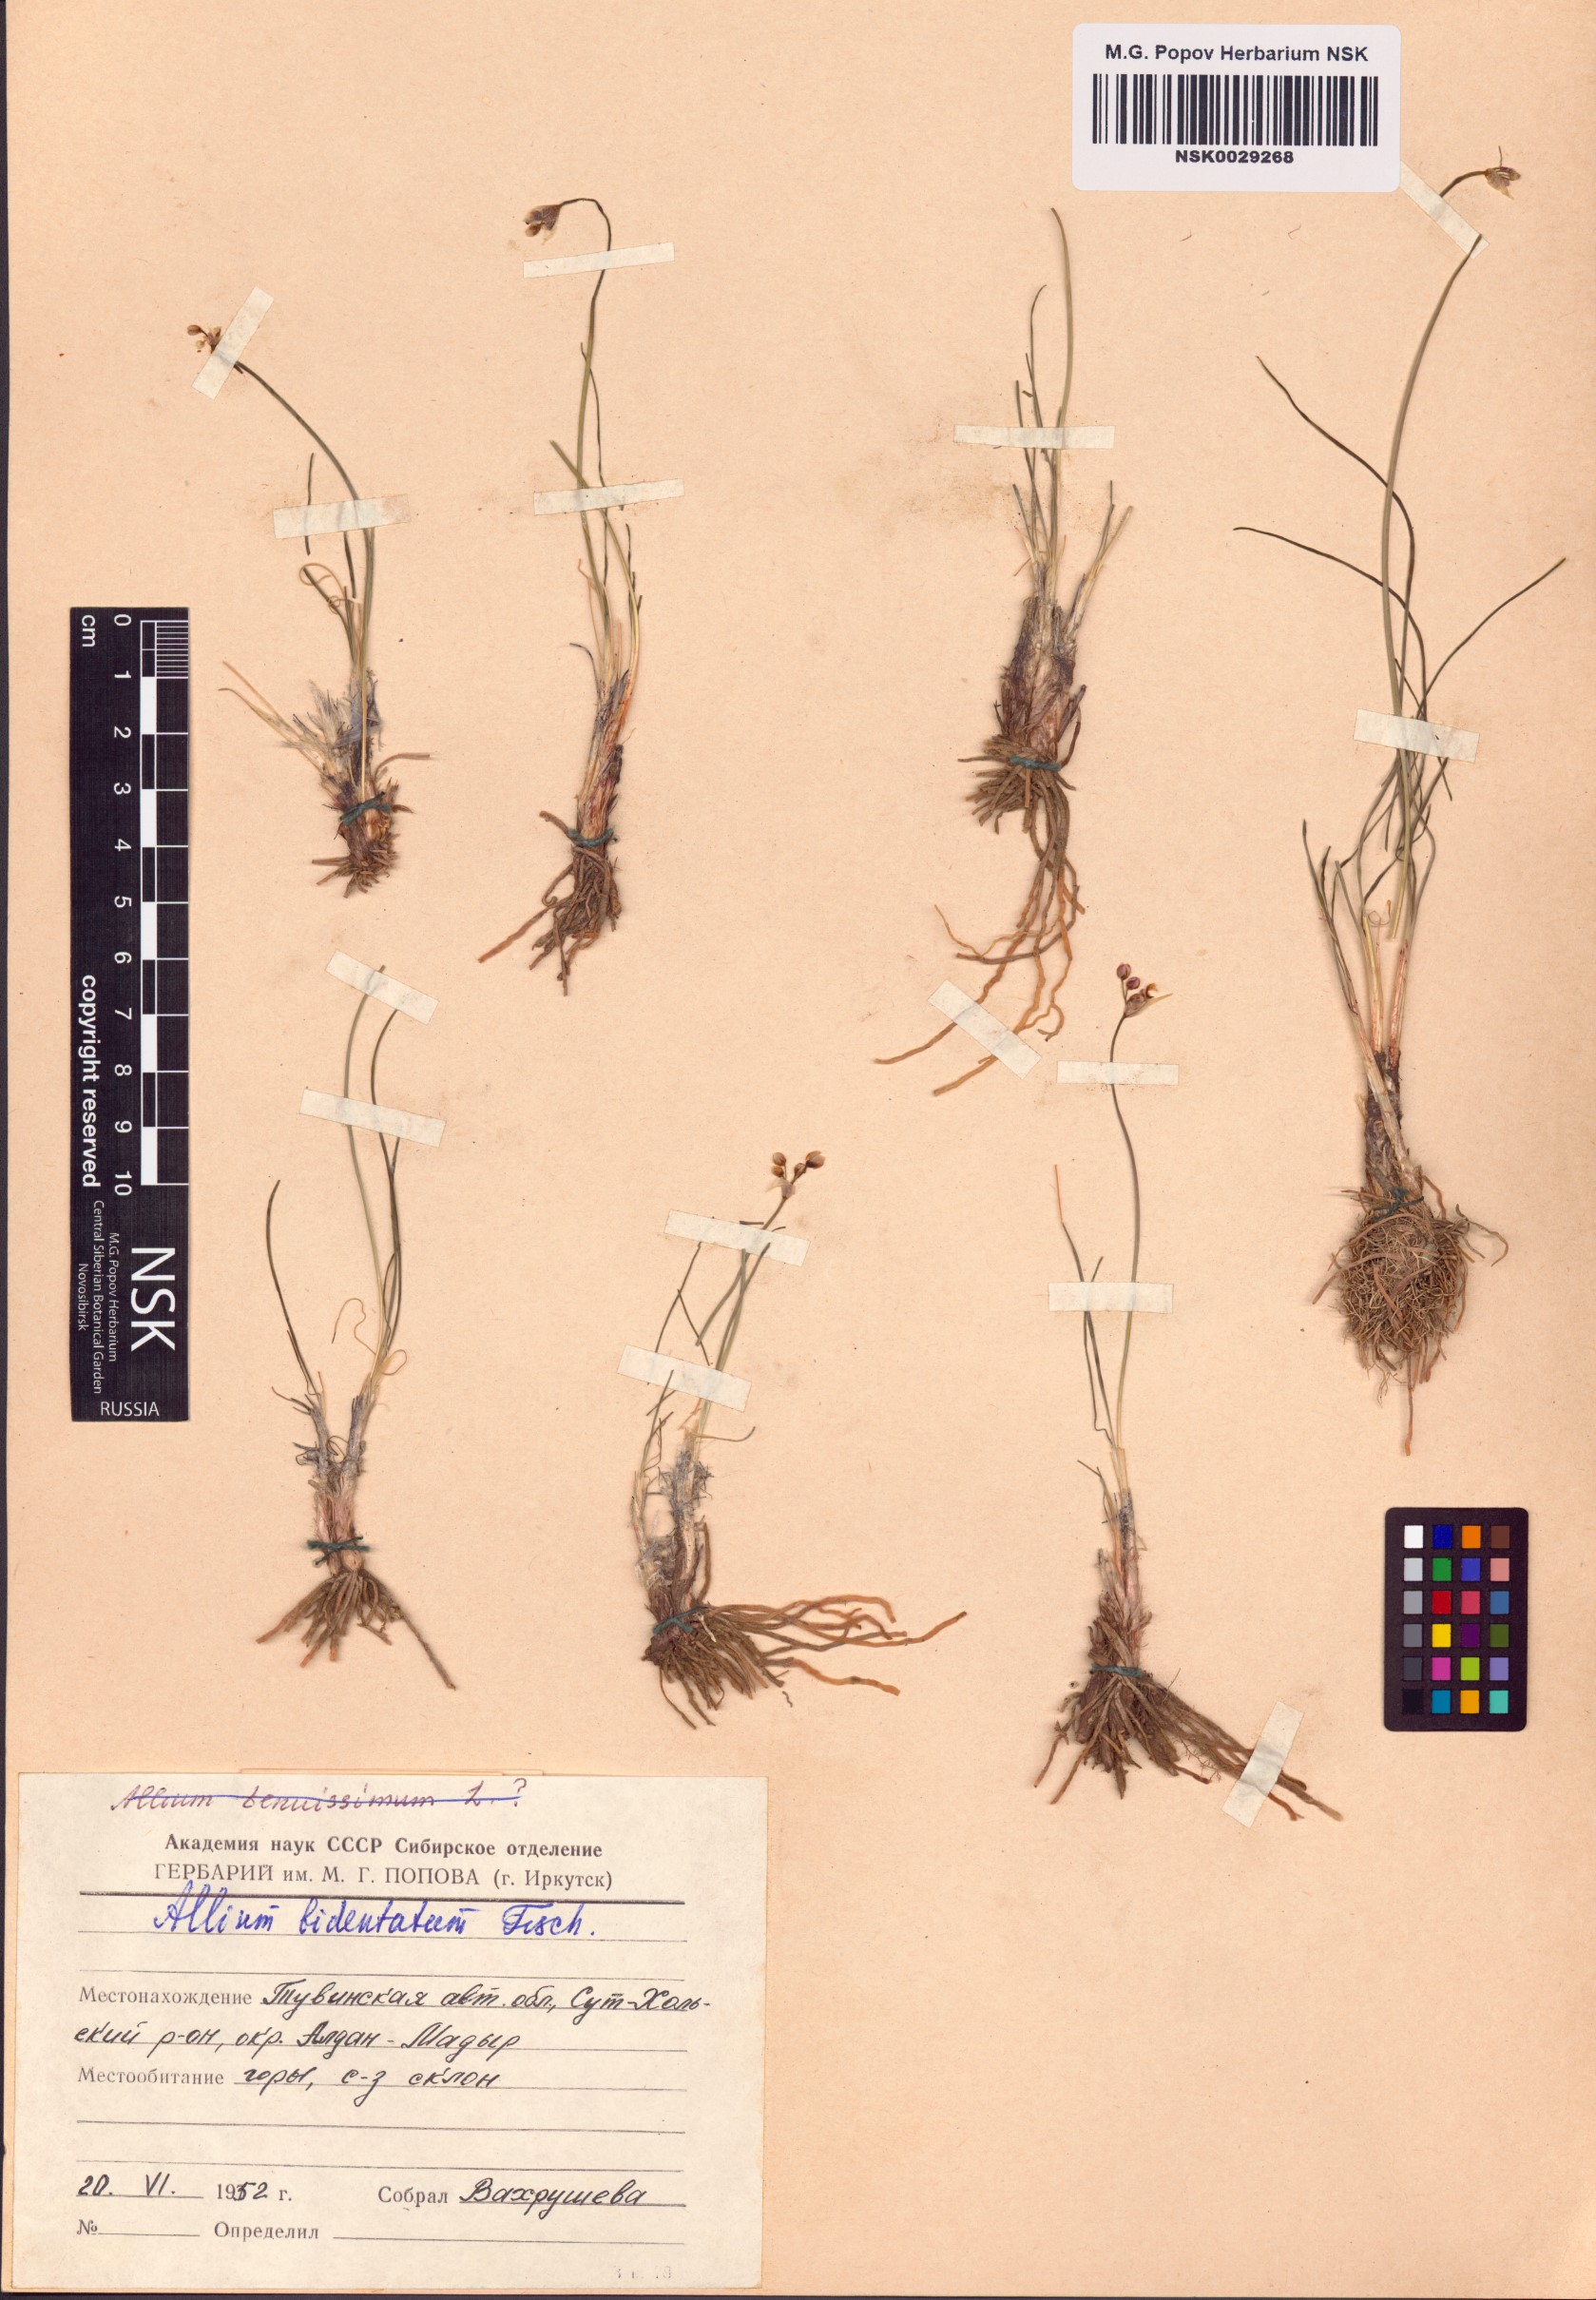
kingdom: Plantae
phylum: Tracheophyta
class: Liliopsida
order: Asparagales
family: Amaryllidaceae
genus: Allium
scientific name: Allium bidentatum
